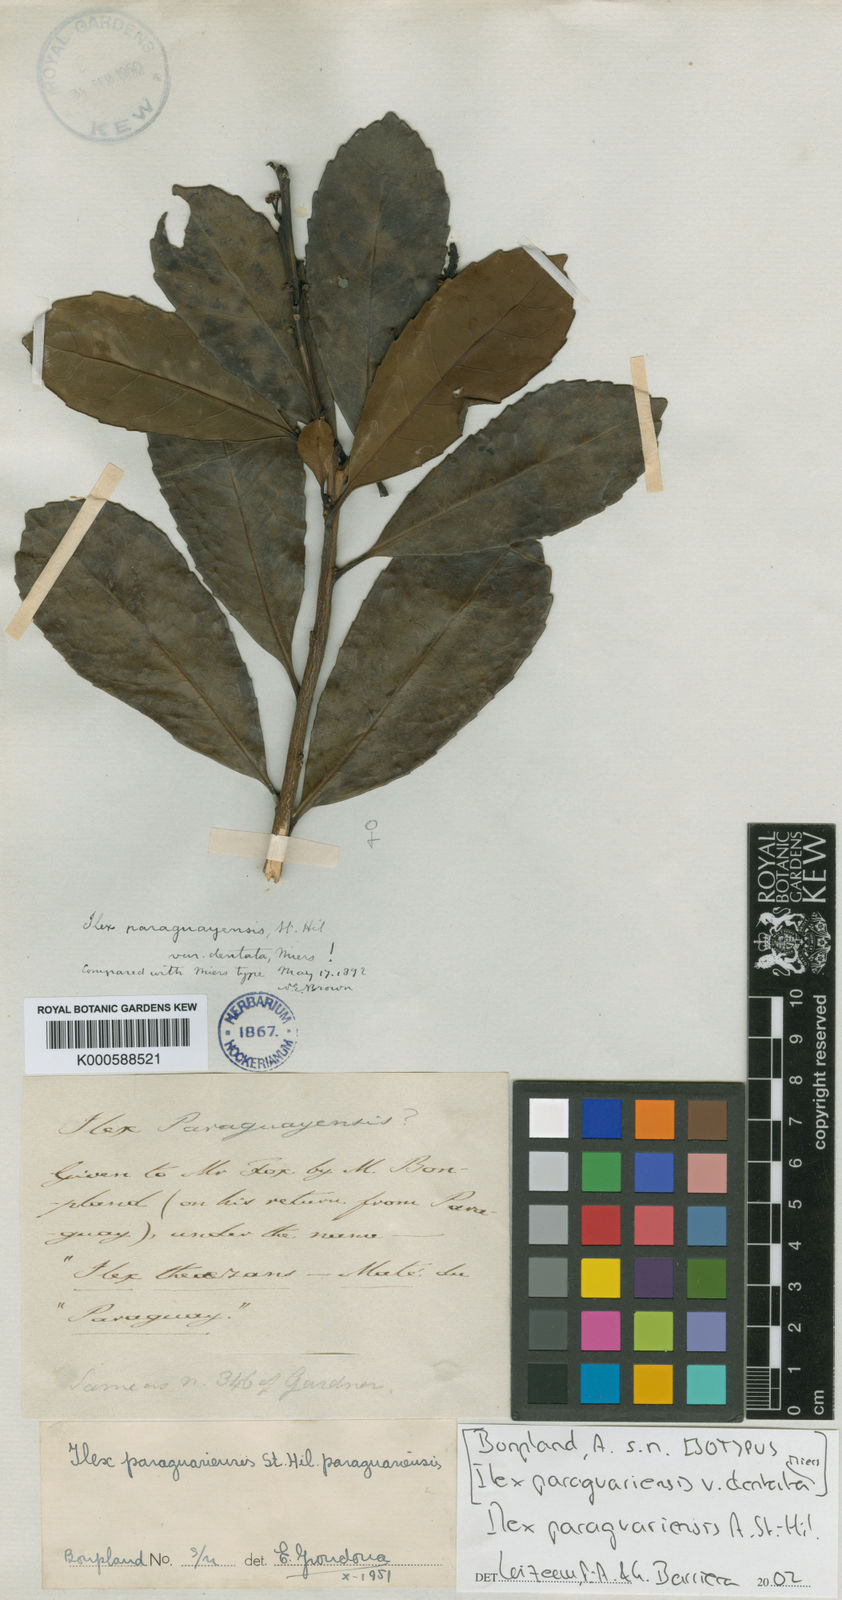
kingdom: Plantae
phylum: Tracheophyta
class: Magnoliopsida
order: Aquifoliales
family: Aquifoliaceae
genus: Ilex
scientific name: Ilex paraguariensis
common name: Paraguay tea
